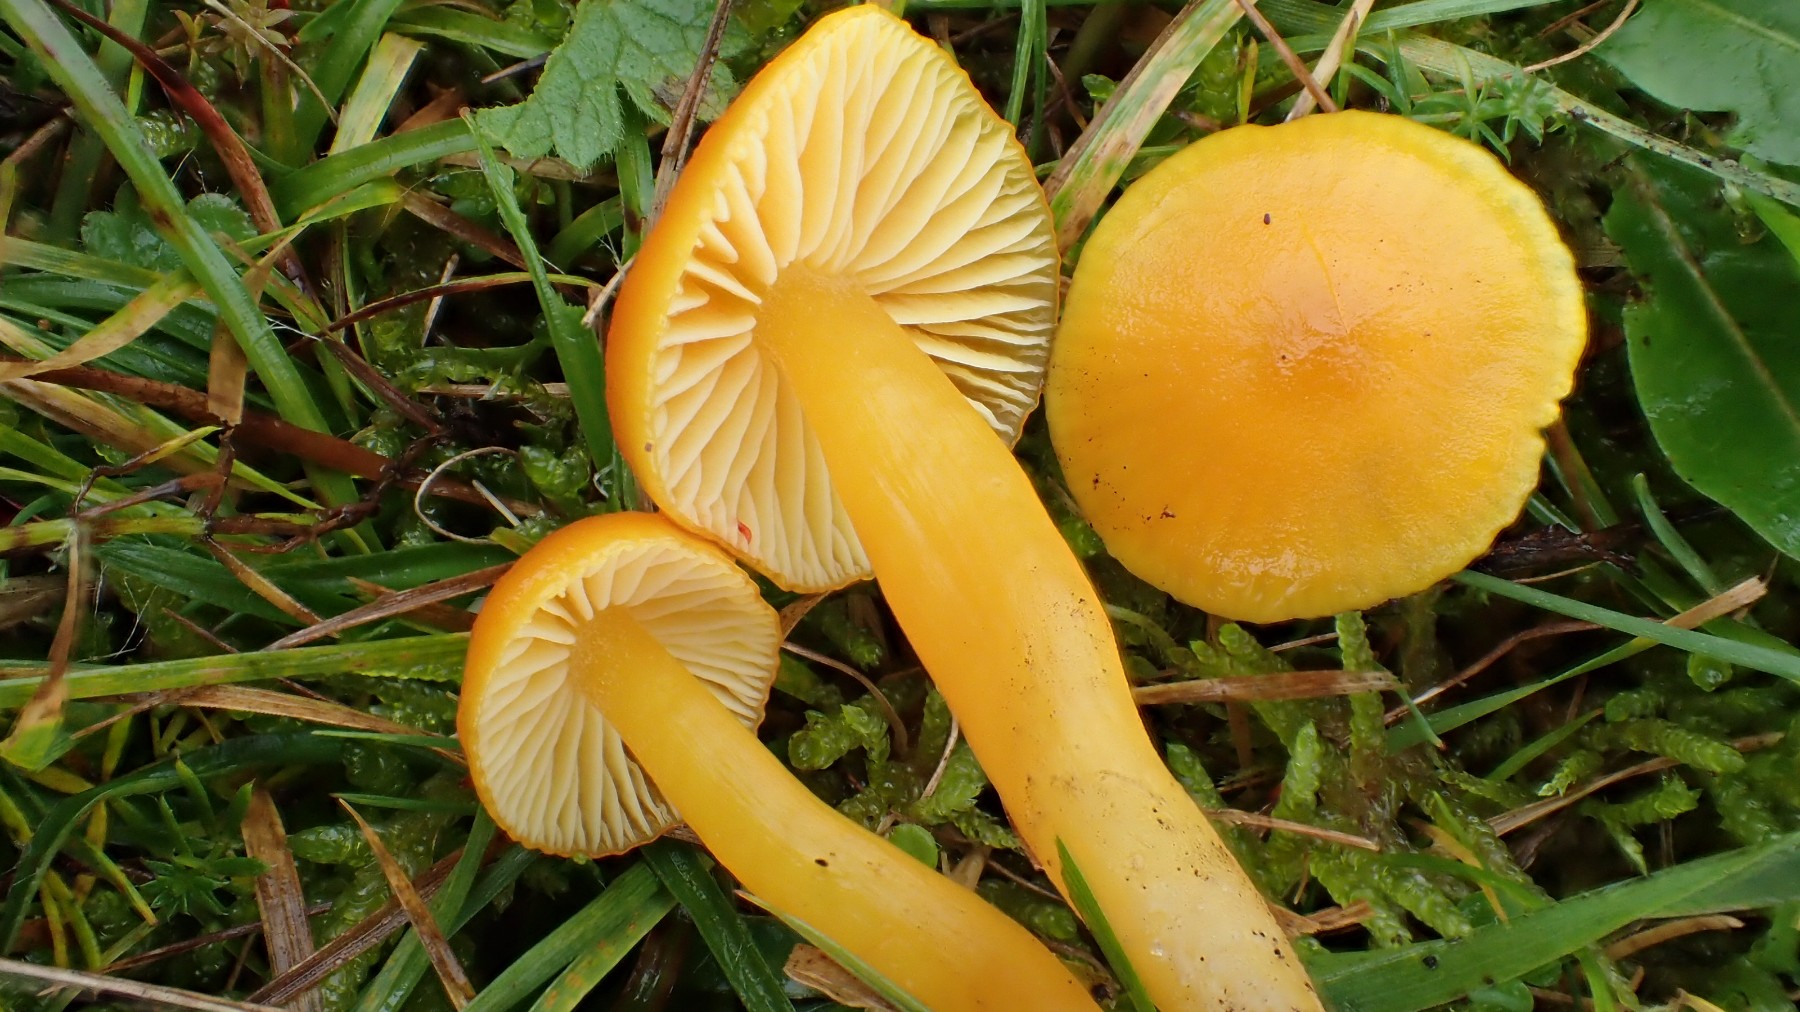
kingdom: Fungi
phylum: Basidiomycota
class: Agaricomycetes
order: Agaricales
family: Hygrophoraceae
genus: Hygrocybe
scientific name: Hygrocybe ceracea
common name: voksgul vokshat
